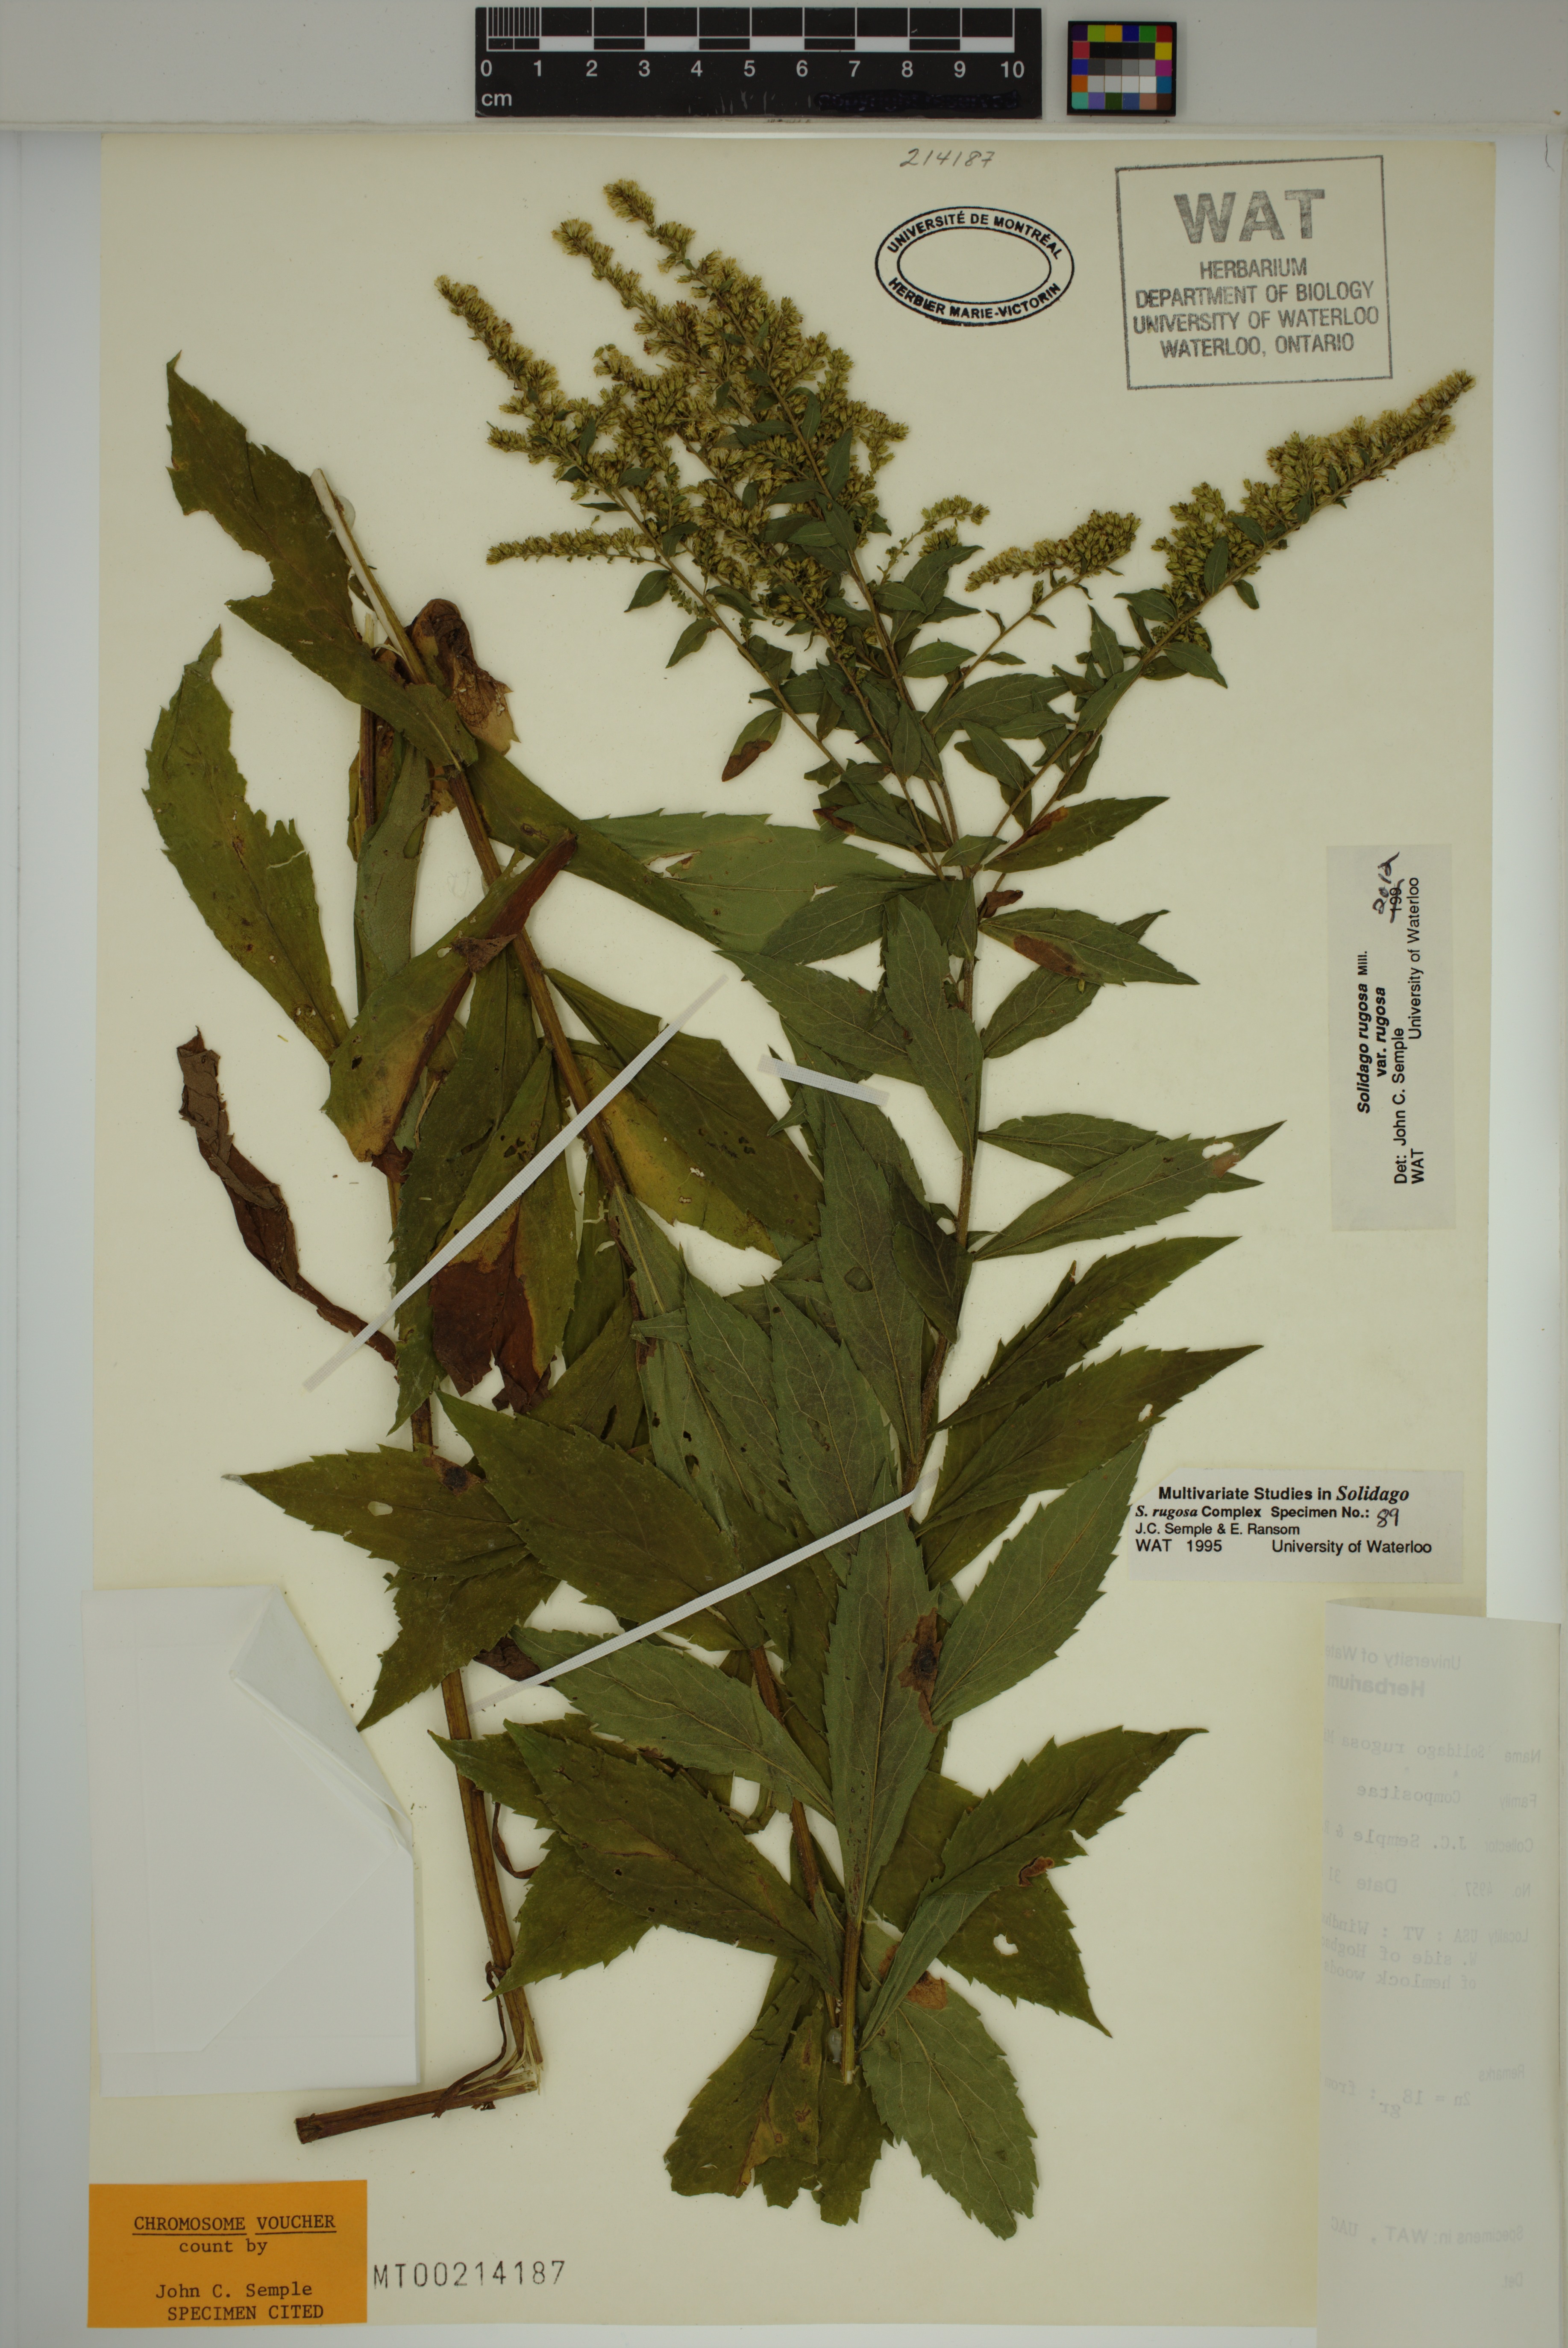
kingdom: Plantae
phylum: Tracheophyta
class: Magnoliopsida
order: Asterales
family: Asteraceae
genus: Solidago
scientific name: Solidago rugosa
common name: Rough-stemmed goldenrod
